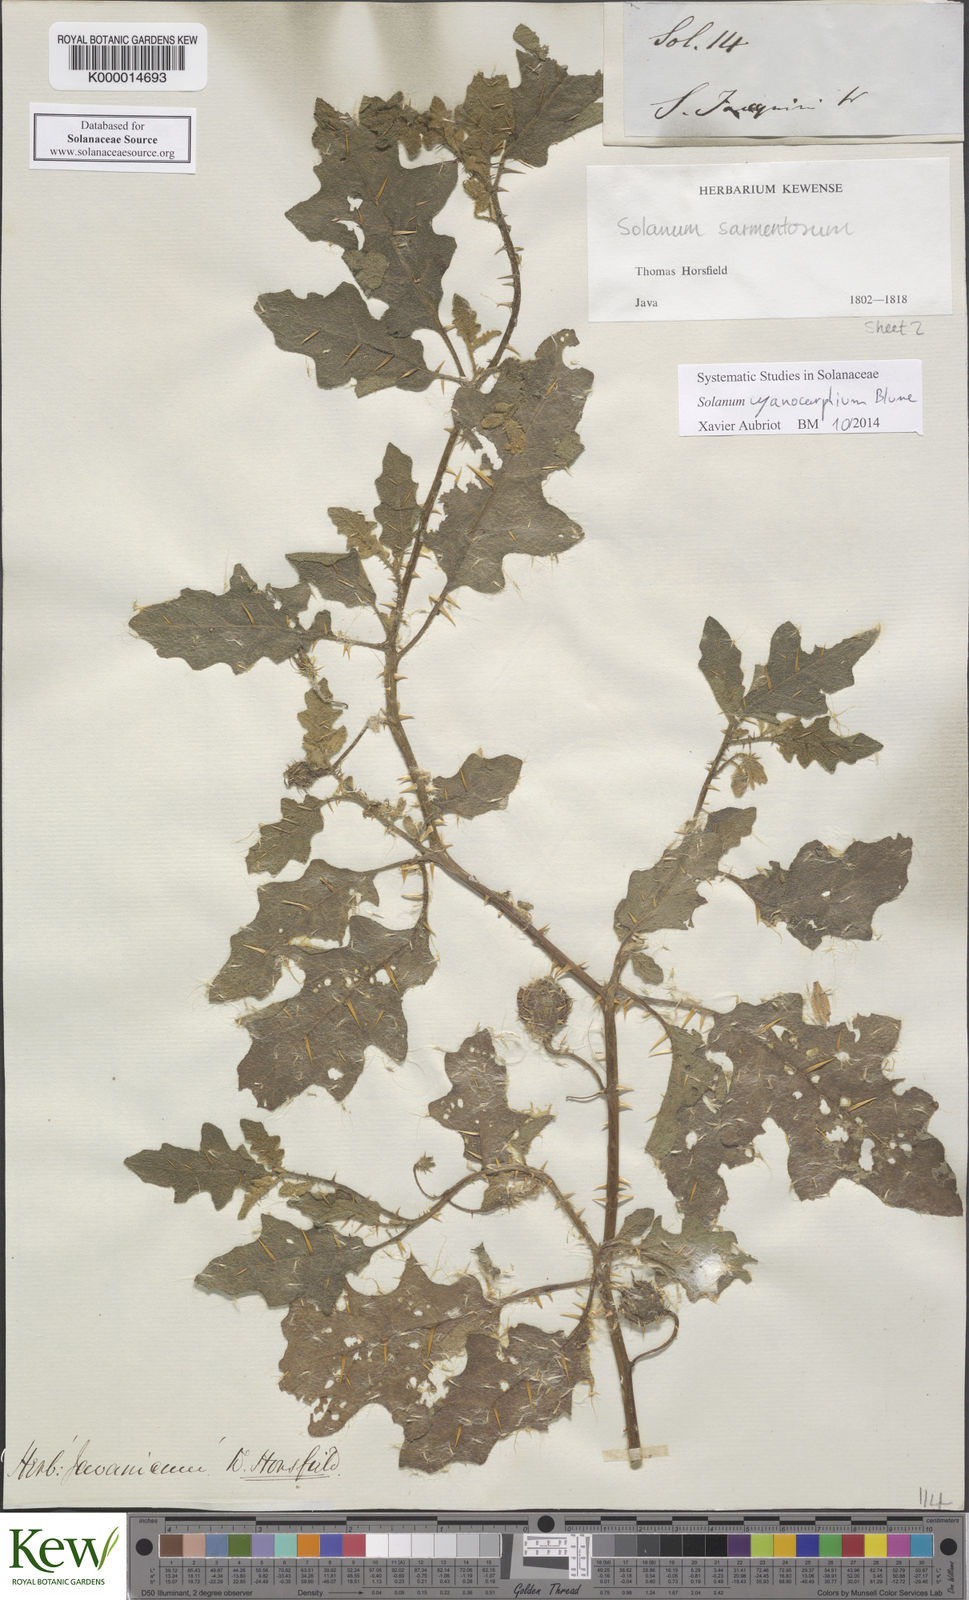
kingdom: Plantae
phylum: Tracheophyta
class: Magnoliopsida
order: Solanales
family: Solanaceae
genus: Solanum
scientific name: Solanum cyanocarphium
